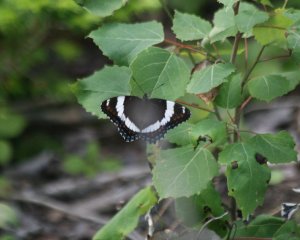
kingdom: Animalia
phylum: Arthropoda
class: Insecta
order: Lepidoptera
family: Nymphalidae
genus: Limenitis
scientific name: Limenitis arthemis
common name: Red-spotted Admiral
